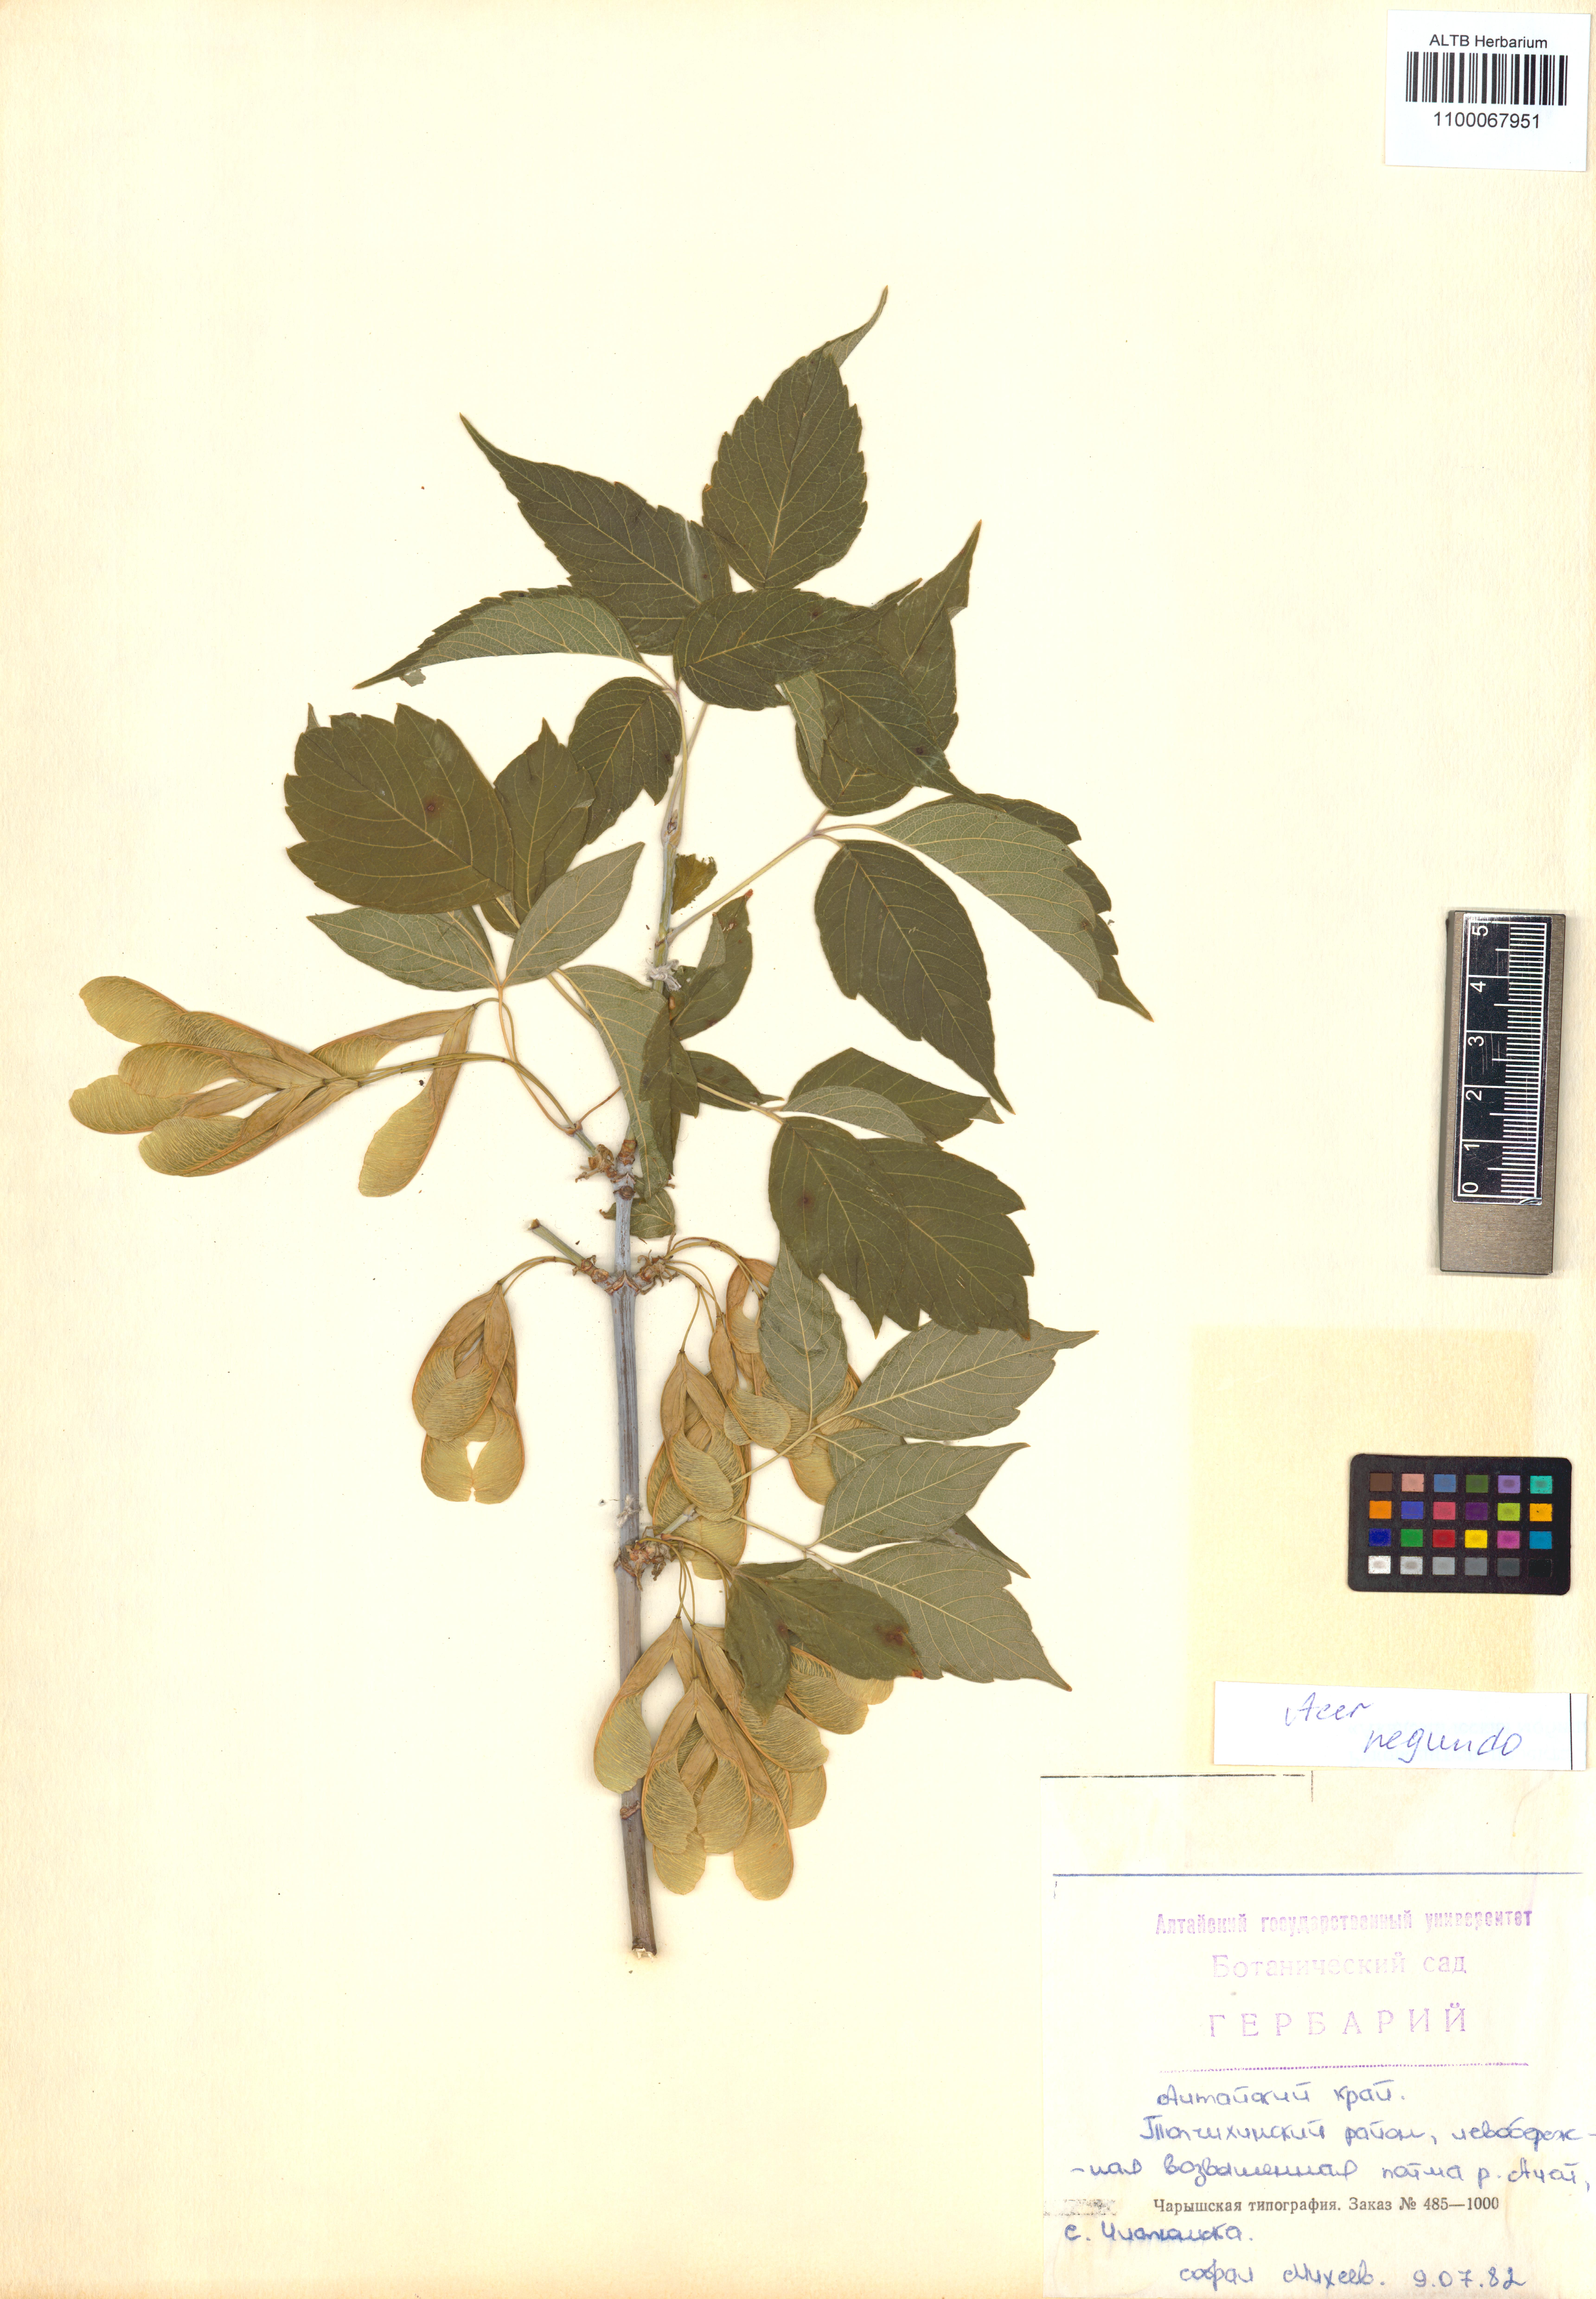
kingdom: Plantae
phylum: Tracheophyta
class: Magnoliopsida
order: Sapindales
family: Sapindaceae
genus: Acer
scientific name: Acer negundo
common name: Ashleaf maple
